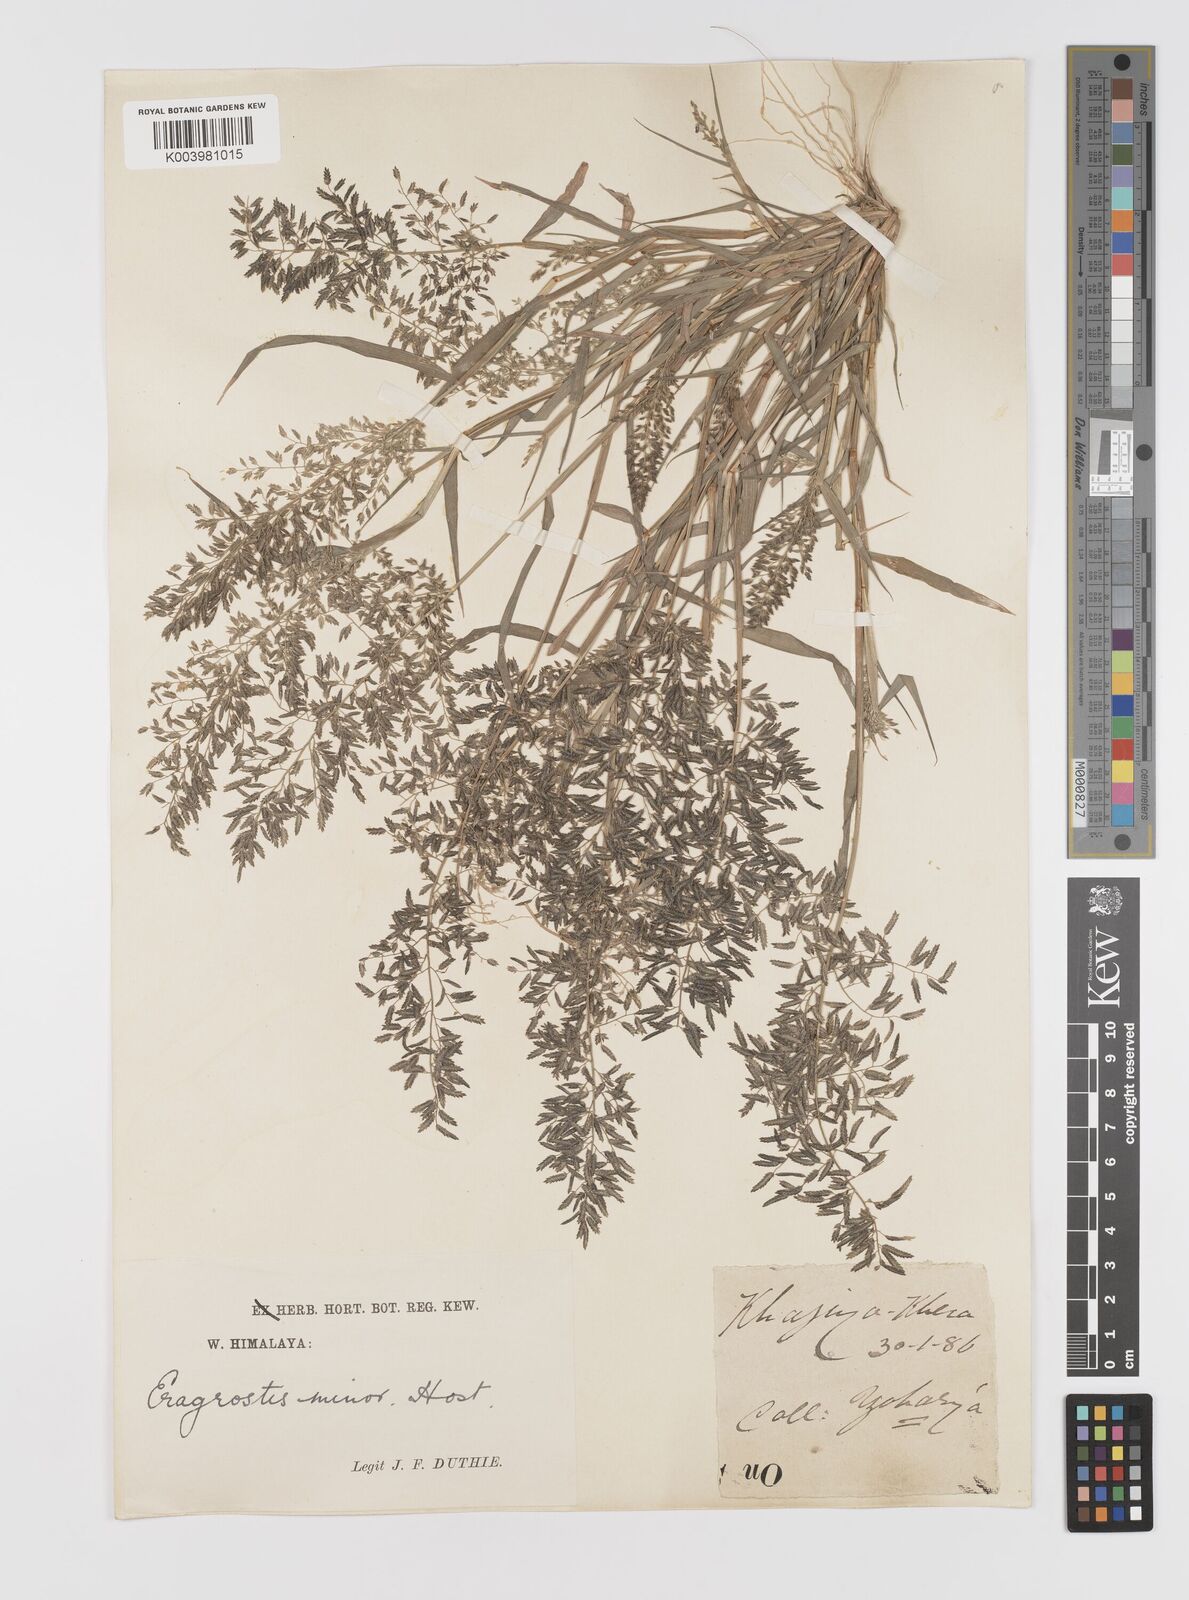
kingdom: Plantae
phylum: Tracheophyta
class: Liliopsida
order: Poales
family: Poaceae
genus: Eragrostis
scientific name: Eragrostis minor
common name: Small love-grass
